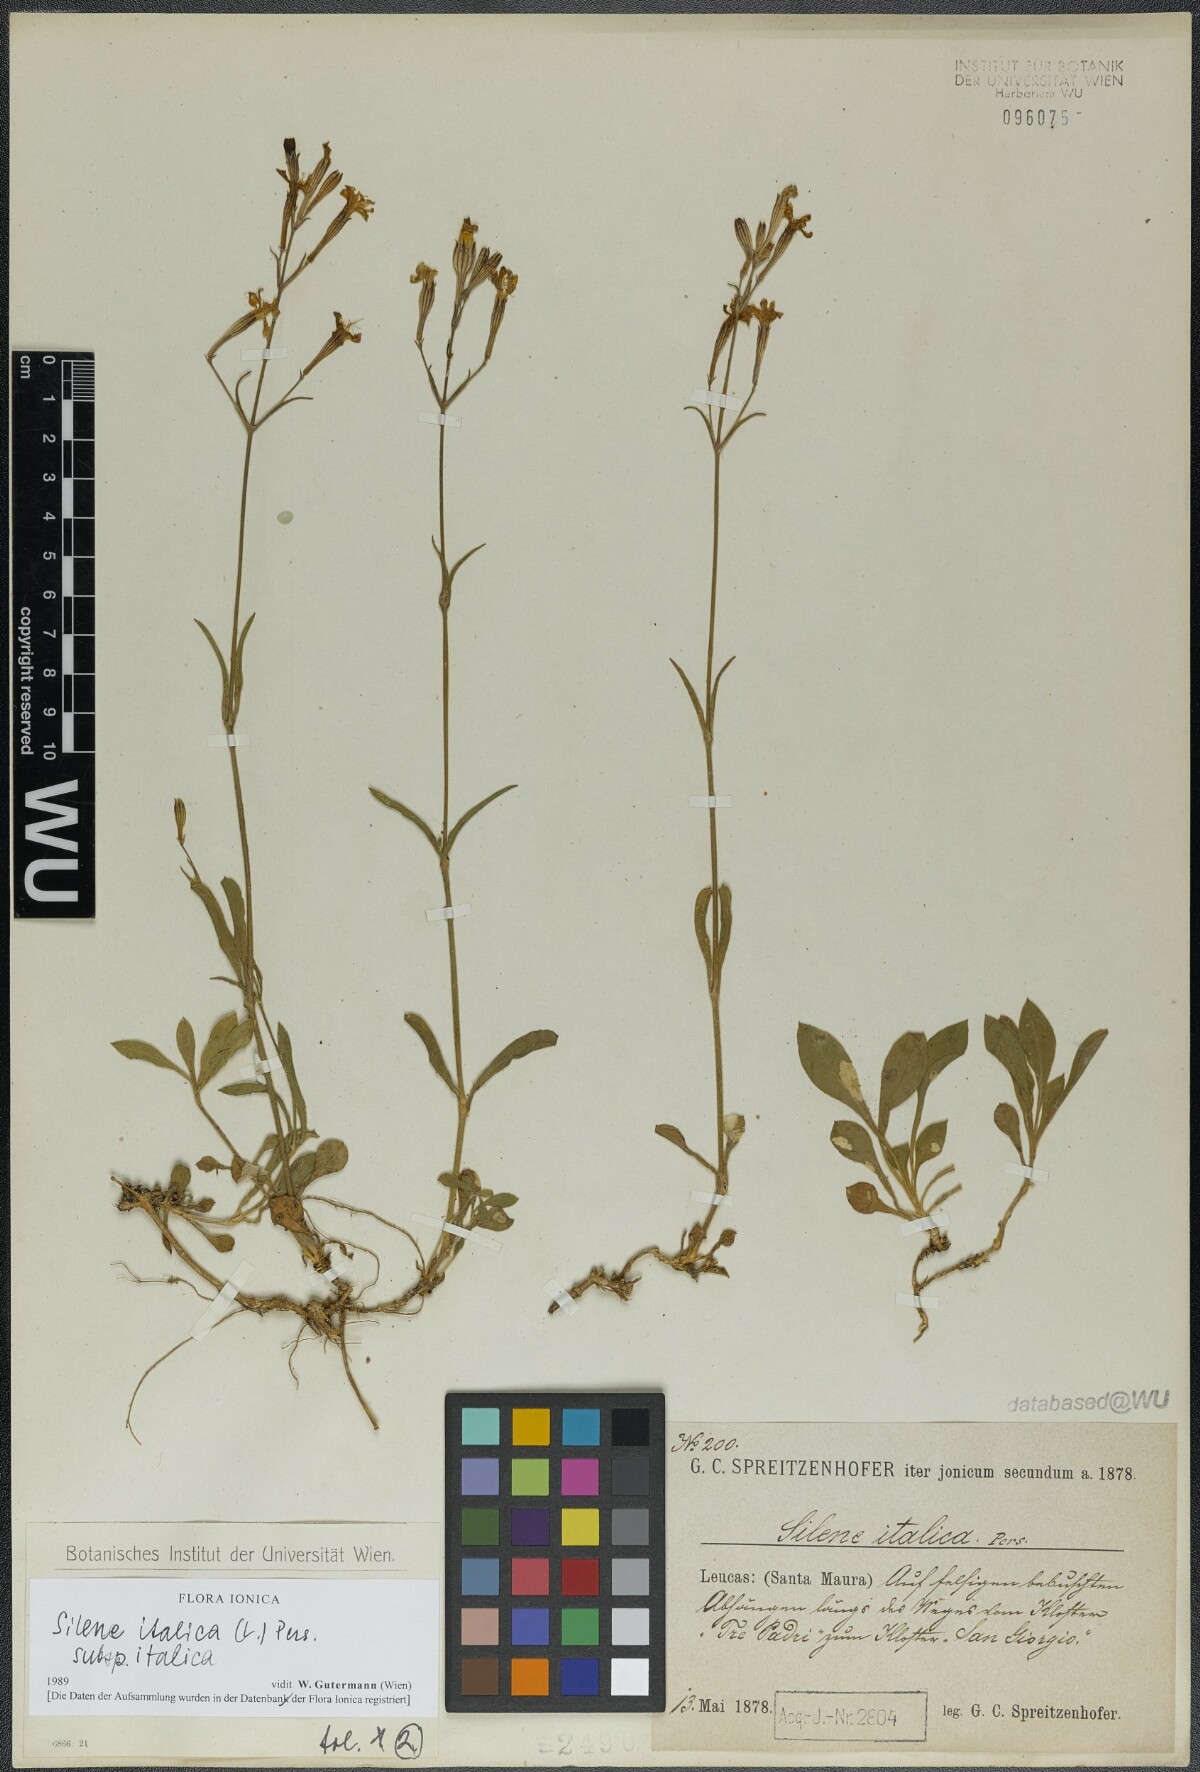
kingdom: Plantae
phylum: Tracheophyta
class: Magnoliopsida
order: Caryophyllales
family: Caryophyllaceae
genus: Silene
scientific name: Silene italica
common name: Italian catchfly
